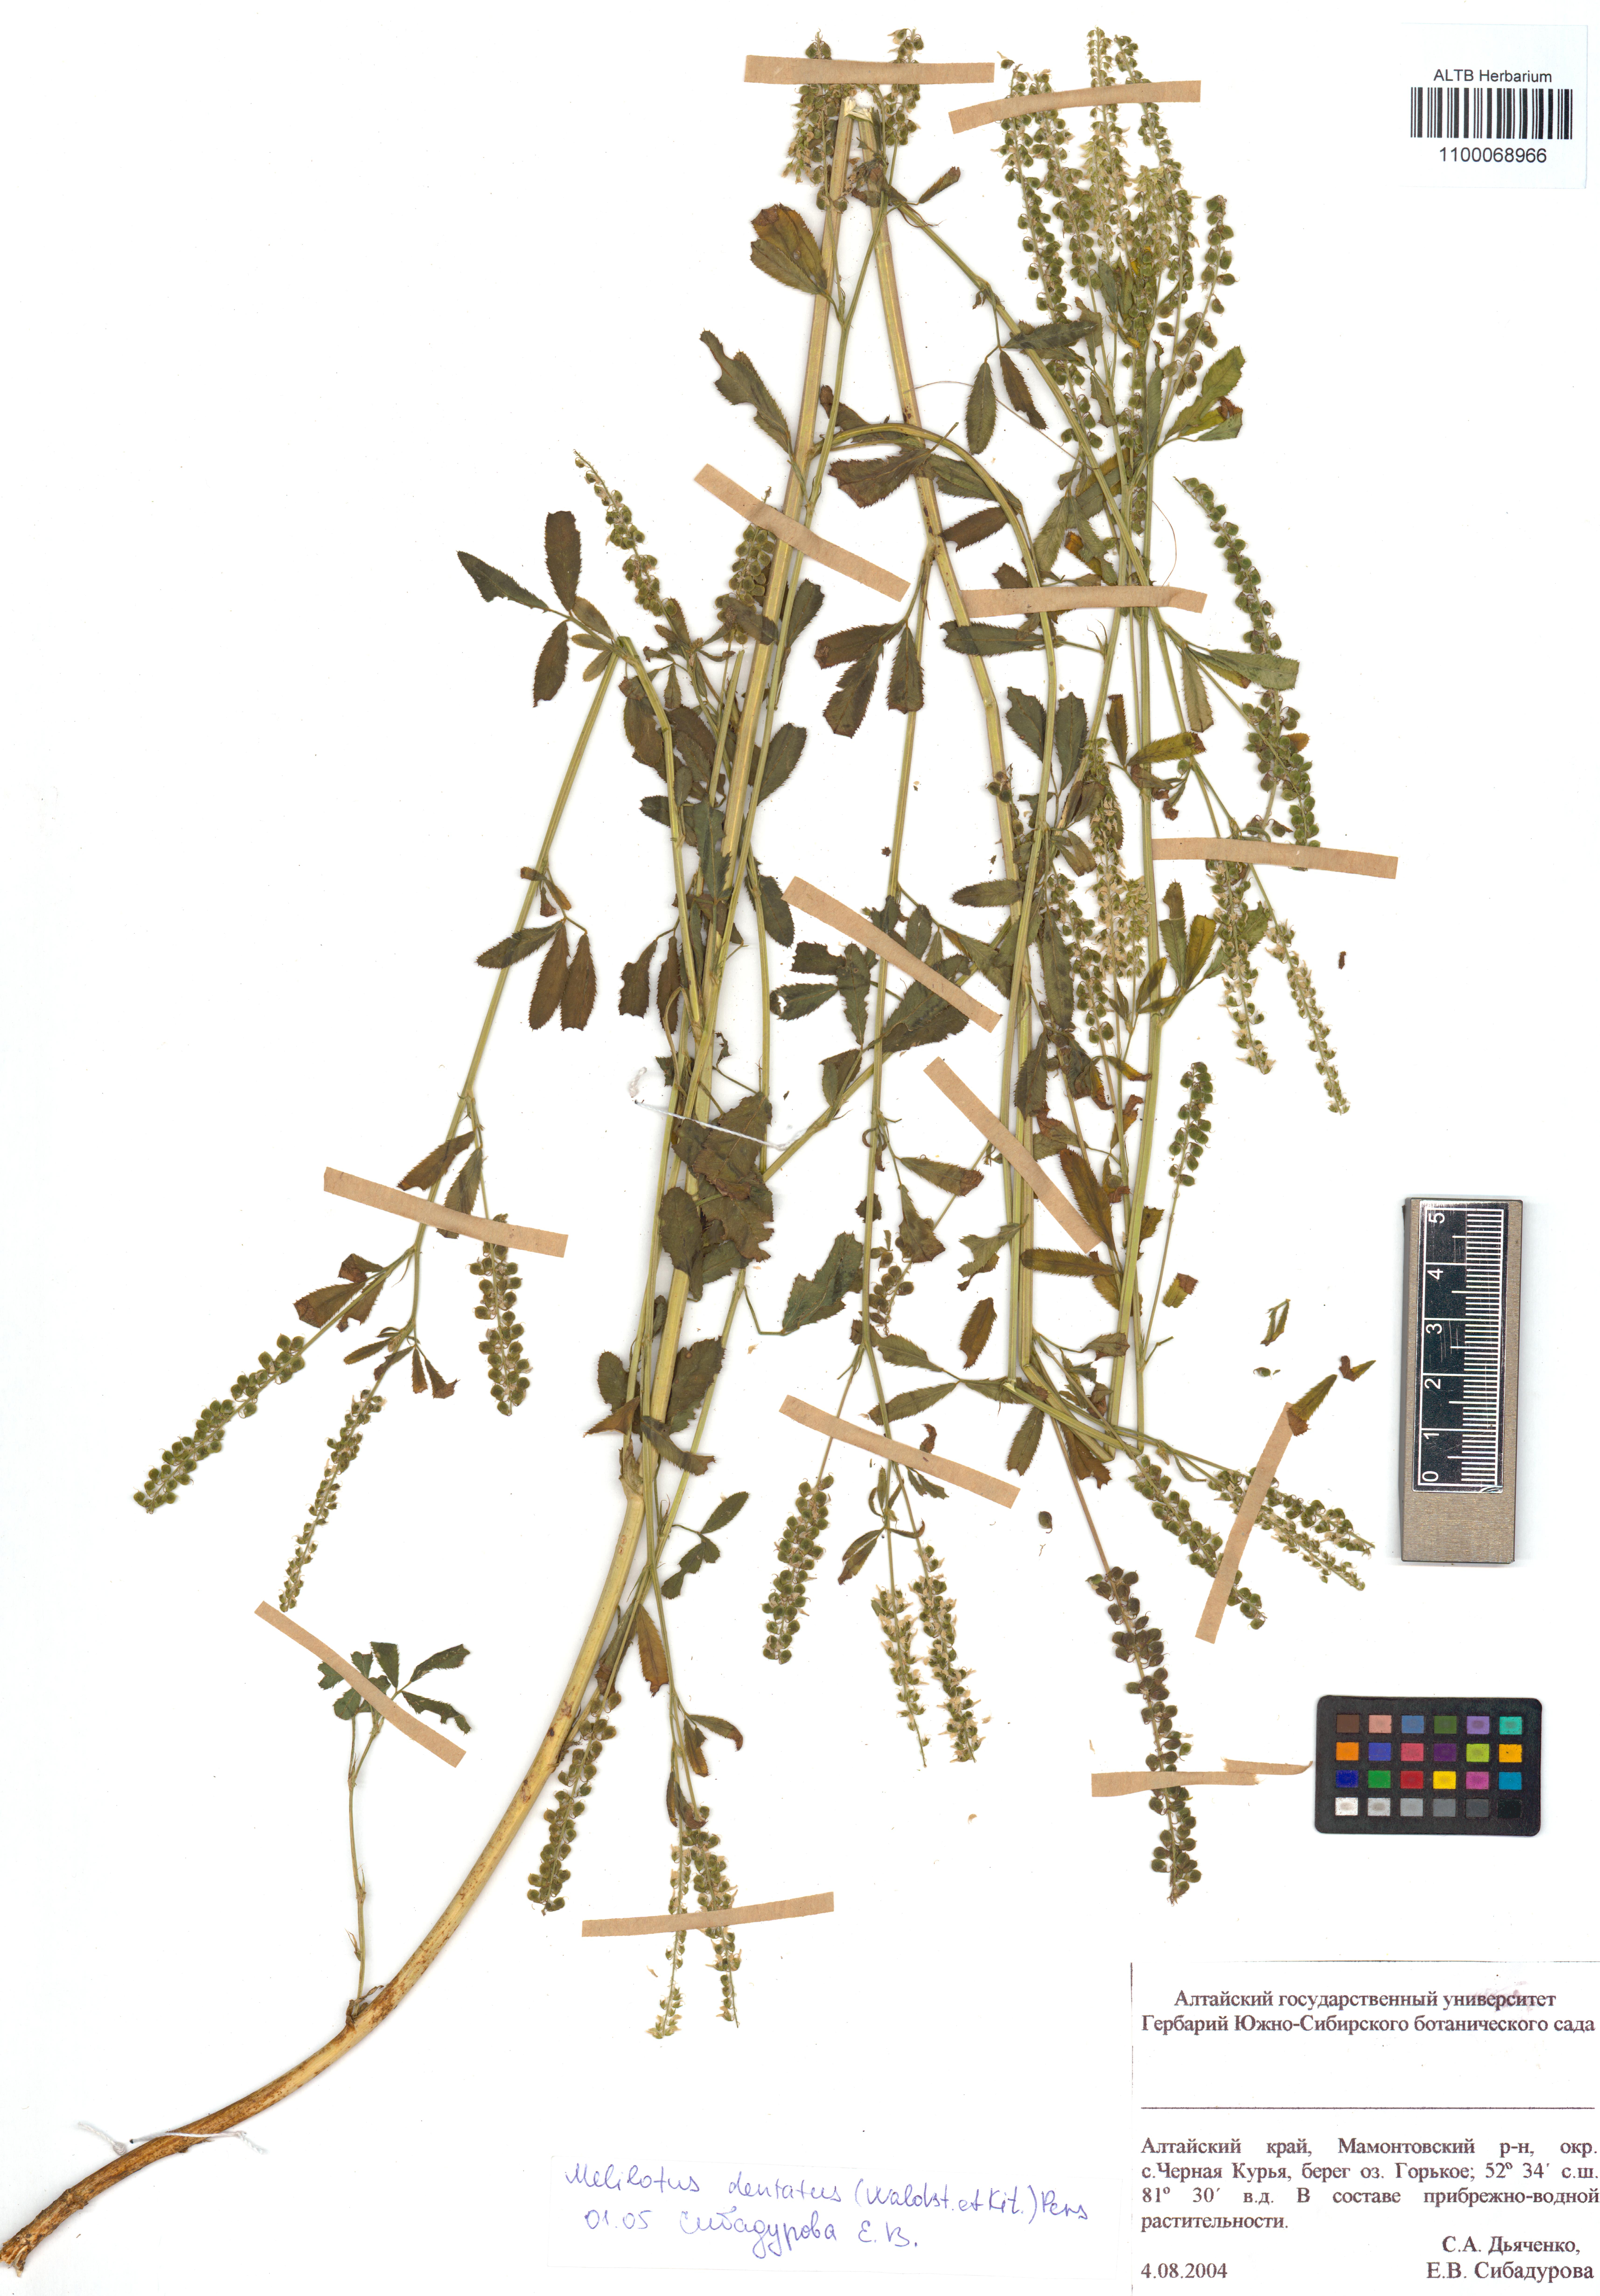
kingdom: Plantae
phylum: Tracheophyta
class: Magnoliopsida
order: Fabales
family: Fabaceae
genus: Melilotus
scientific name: Melilotus dentatus
